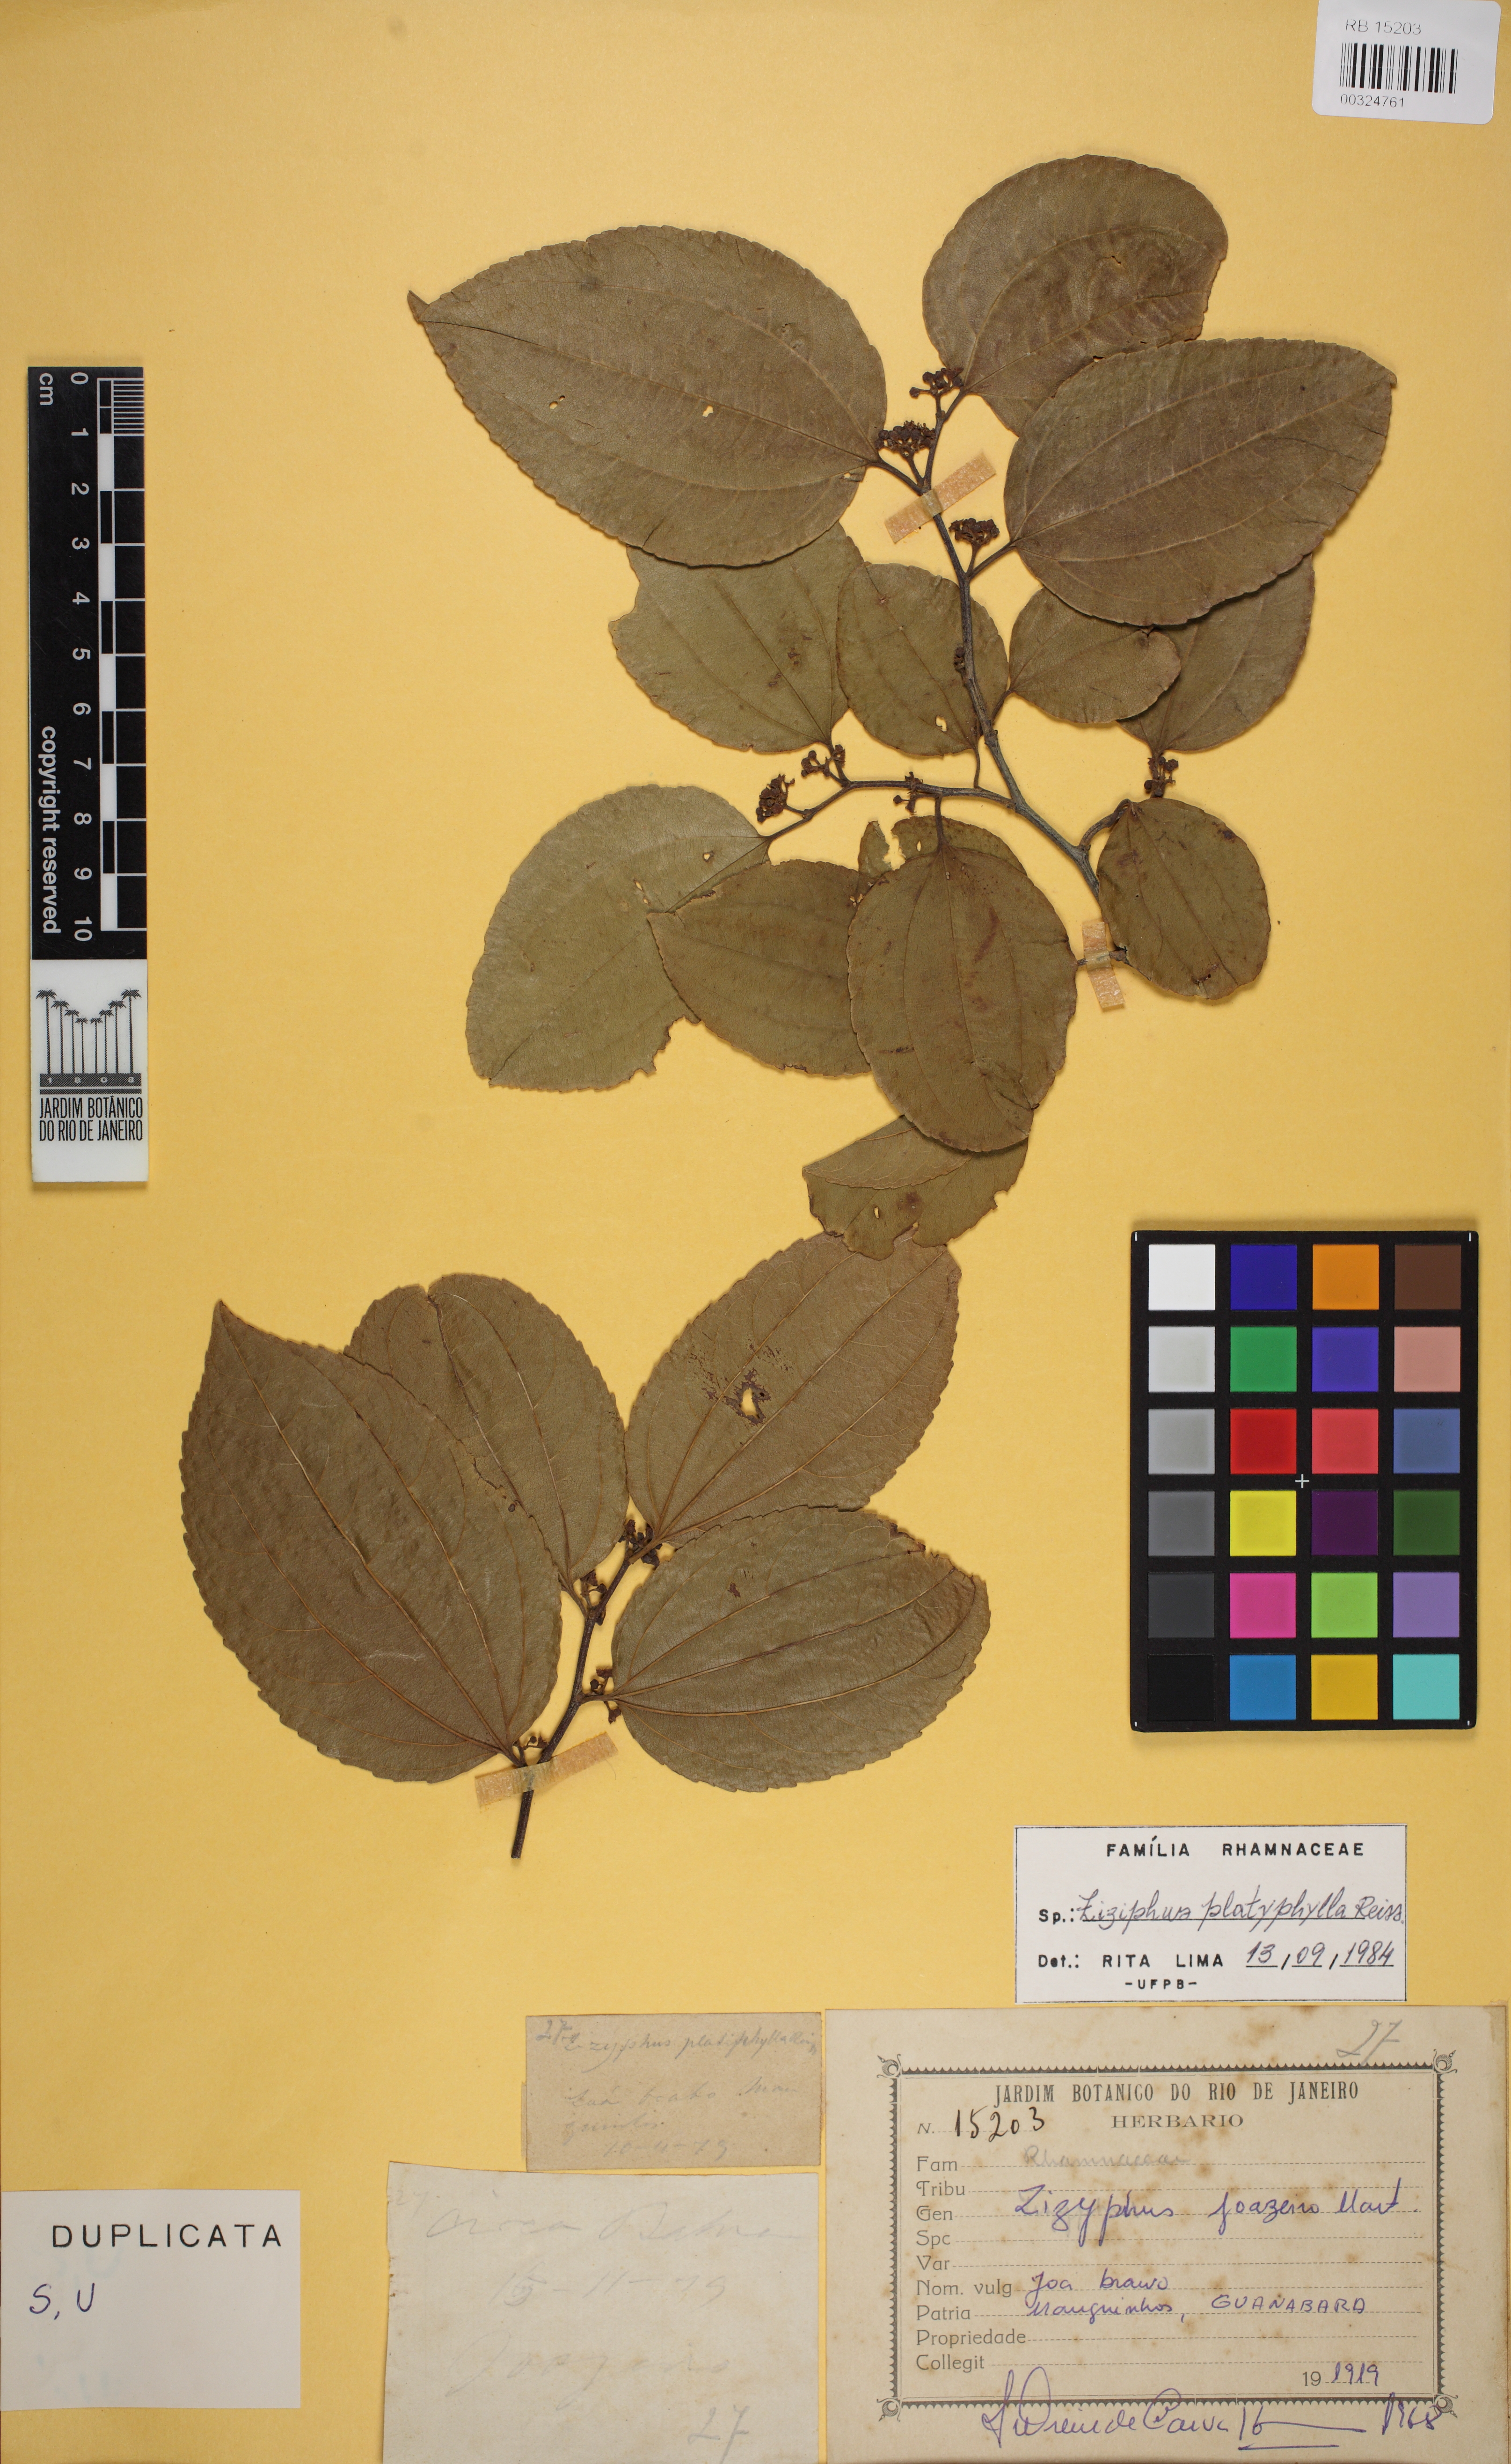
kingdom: Plantae
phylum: Tracheophyta
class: Magnoliopsida
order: Rosales
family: Rhamnaceae
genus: Sarcomphalus
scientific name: Sarcomphalus platyphyllus
